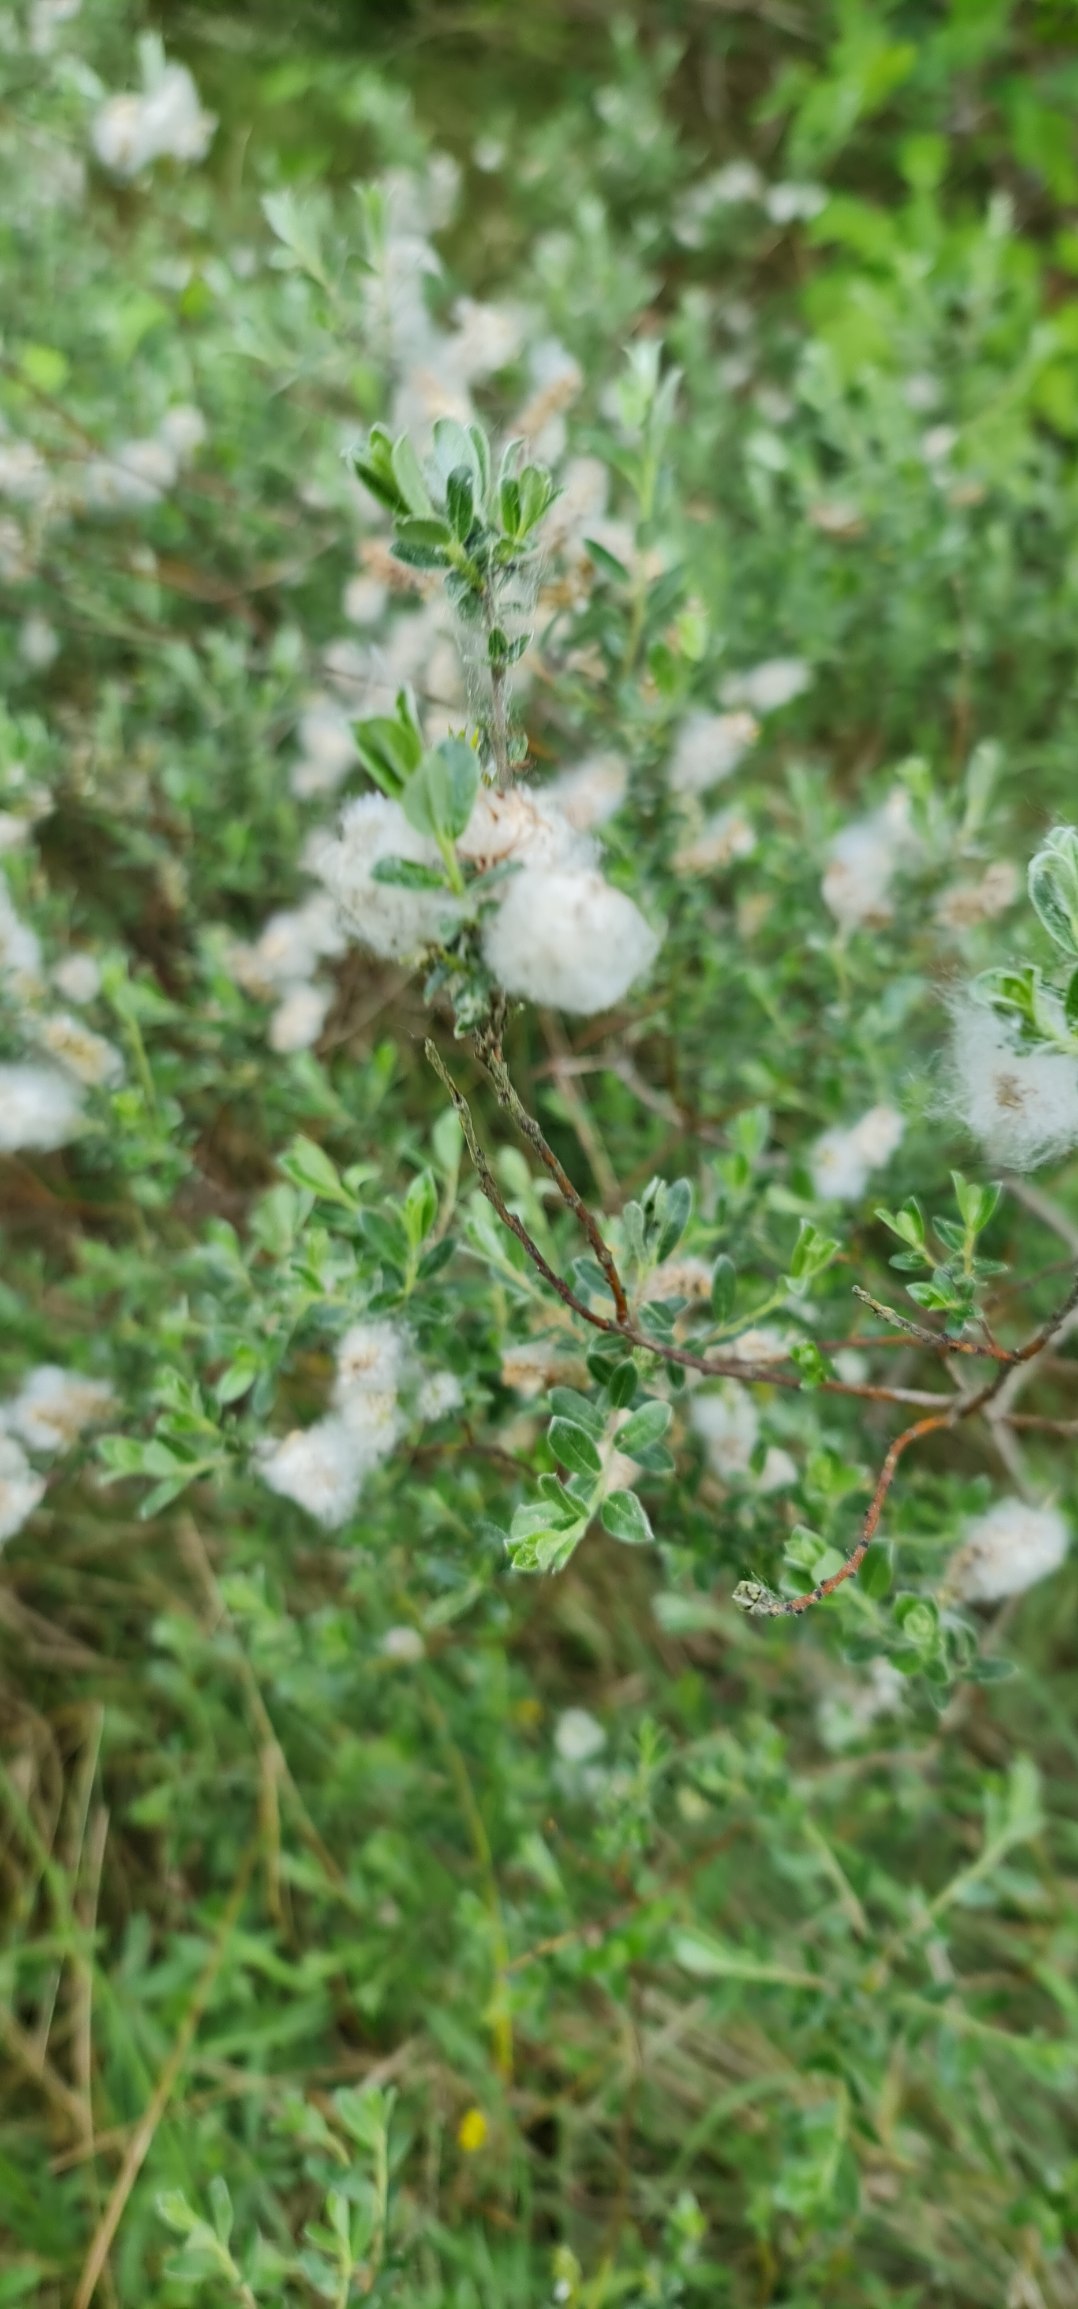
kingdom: Plantae
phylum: Tracheophyta
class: Magnoliopsida
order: Malpighiales
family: Salicaceae
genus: Salix
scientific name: Salix repens
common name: Krybende pil
